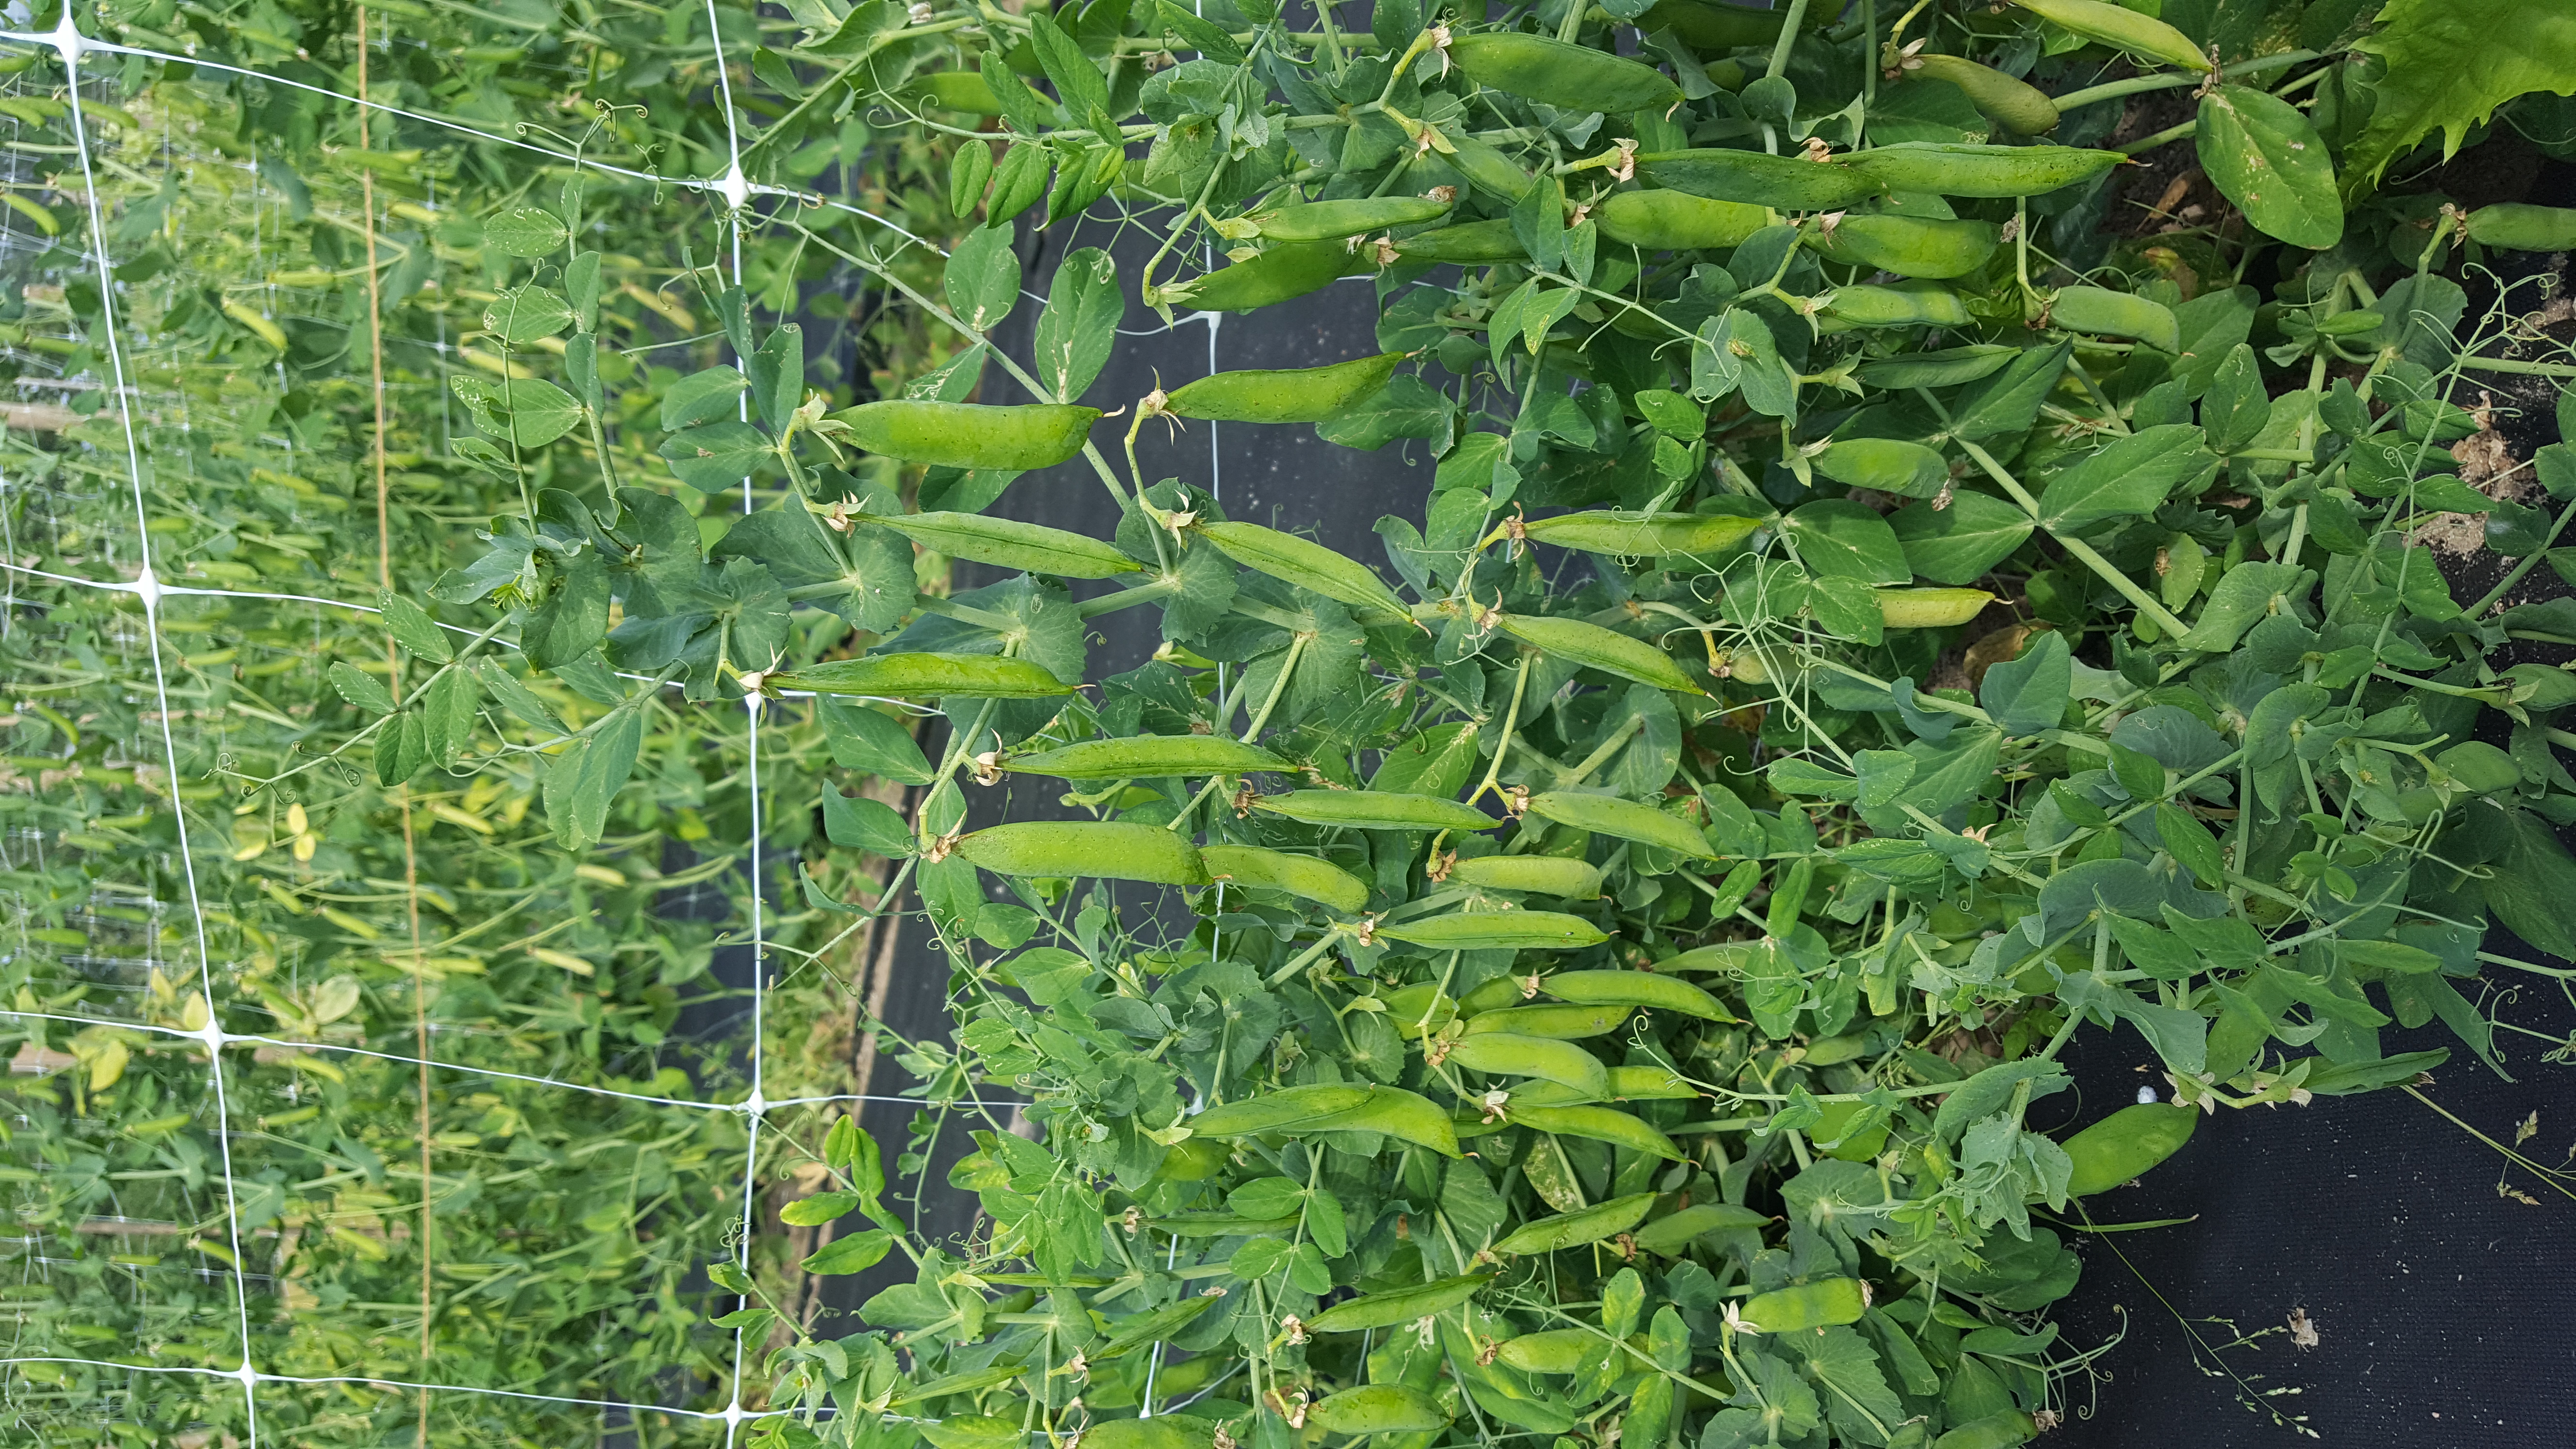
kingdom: Plantae
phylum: Tracheophyta
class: Magnoliopsida
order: Fabales
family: Fabaceae
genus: Lathyrus
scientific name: Lathyrus oleraceus
